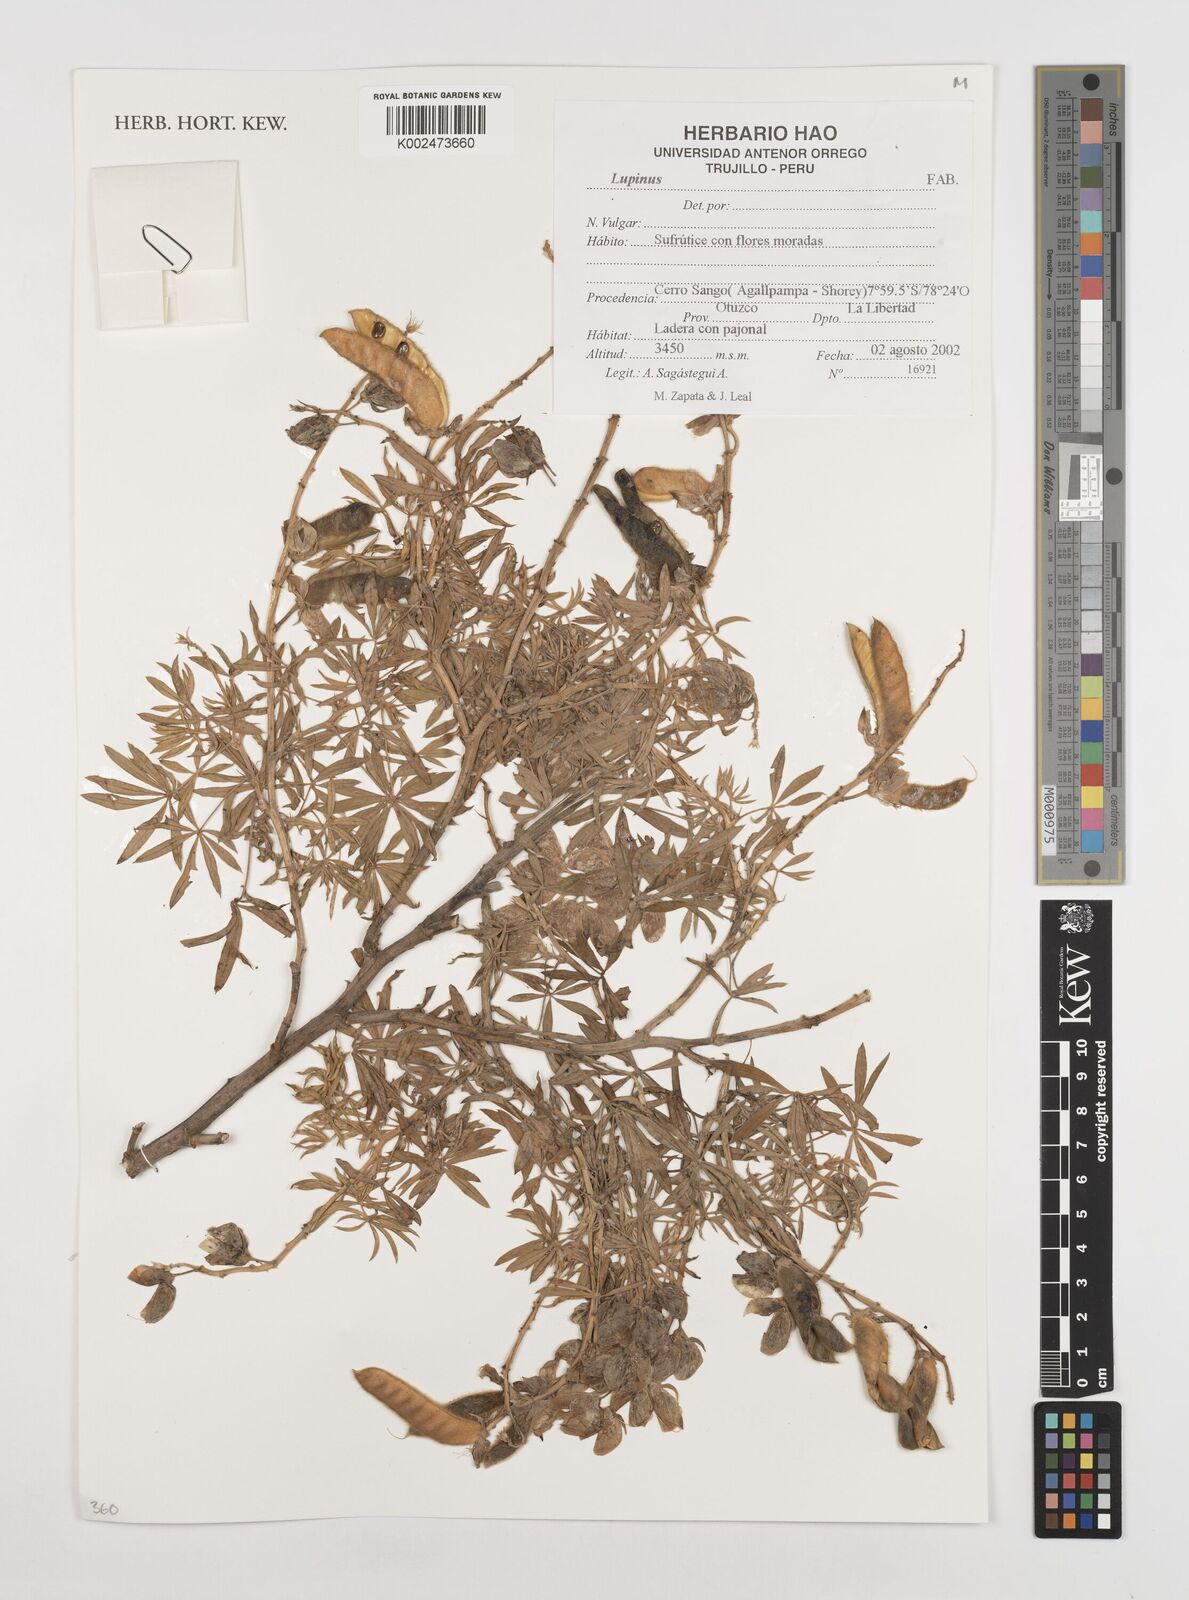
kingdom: Plantae
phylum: Tracheophyta
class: Magnoliopsida
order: Fabales
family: Fabaceae
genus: Lupinus
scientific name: Lupinus
